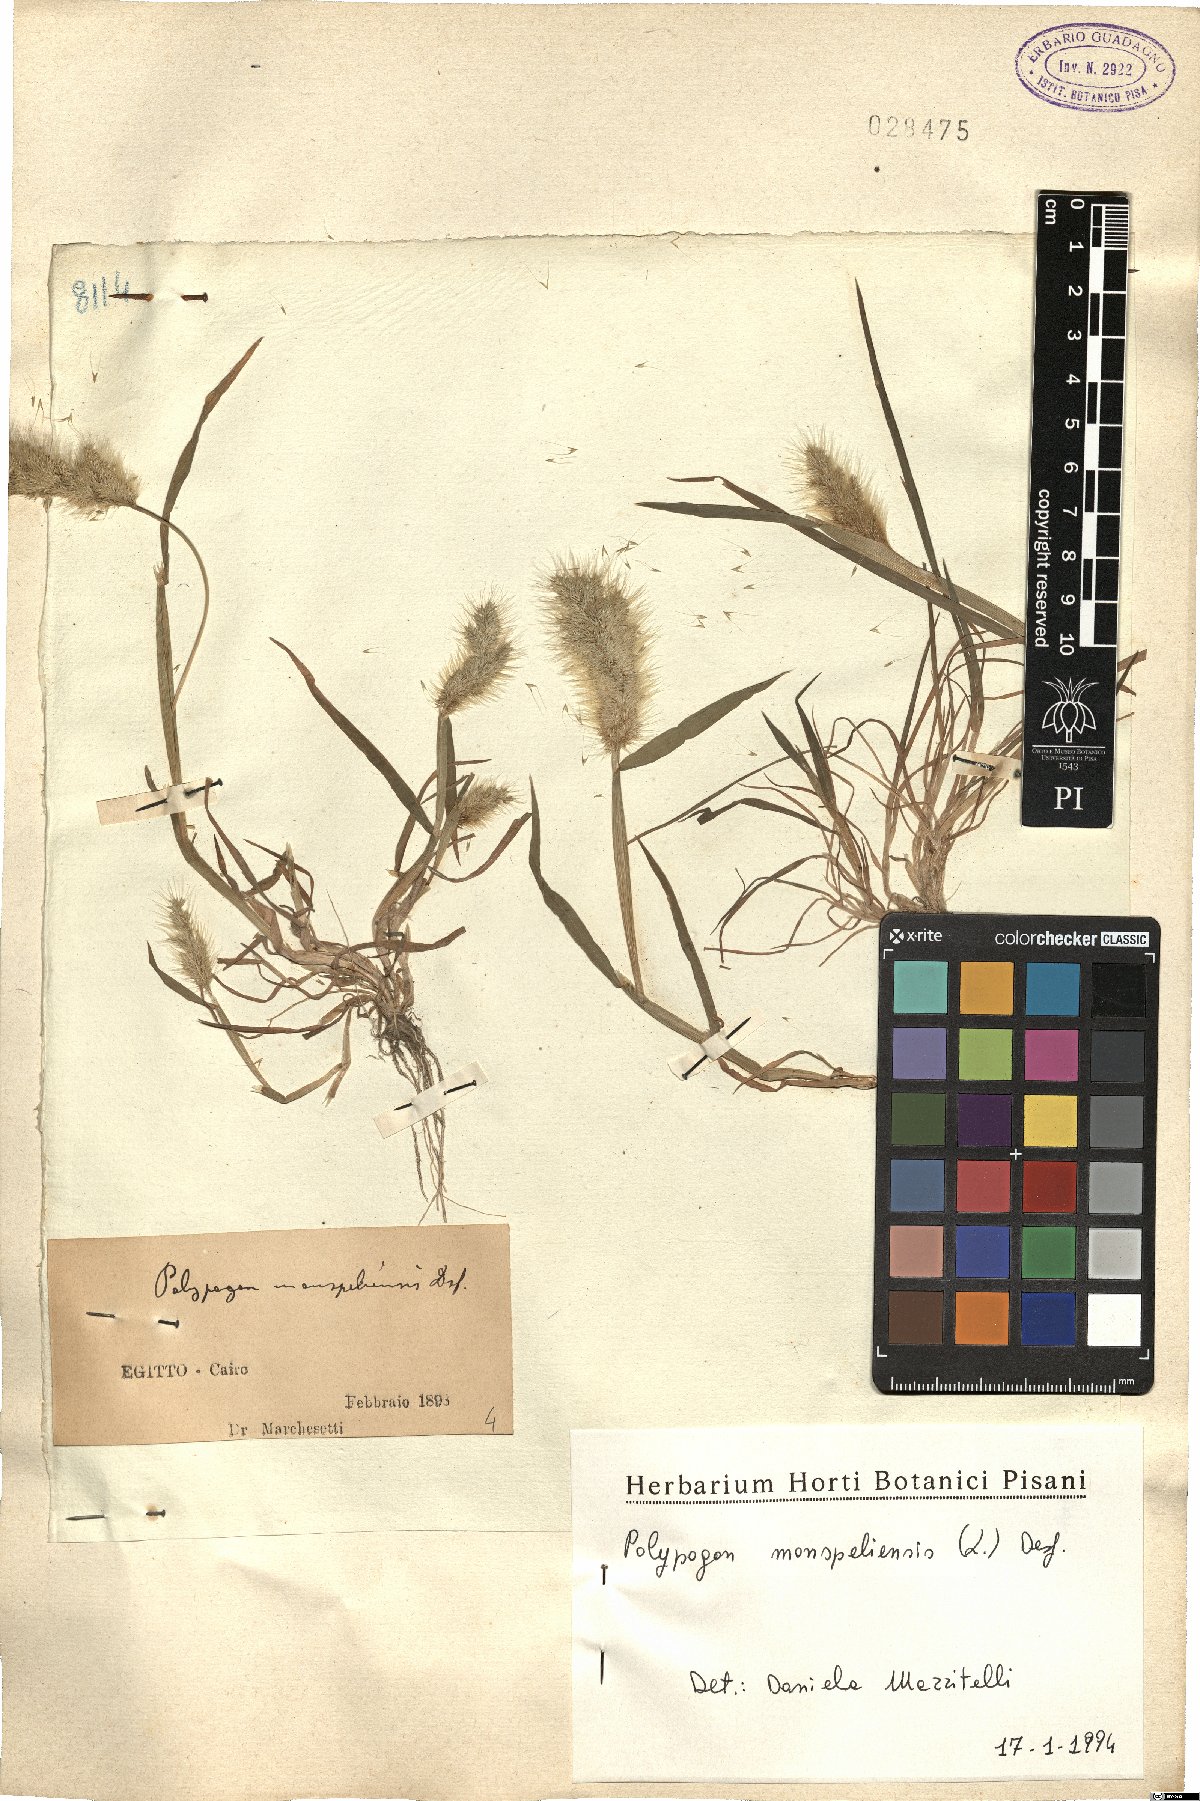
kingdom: Plantae
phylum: Tracheophyta
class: Liliopsida
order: Poales
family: Poaceae
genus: Polypogon
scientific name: Polypogon monspeliensis
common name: Annual rabbitsfoot grass
